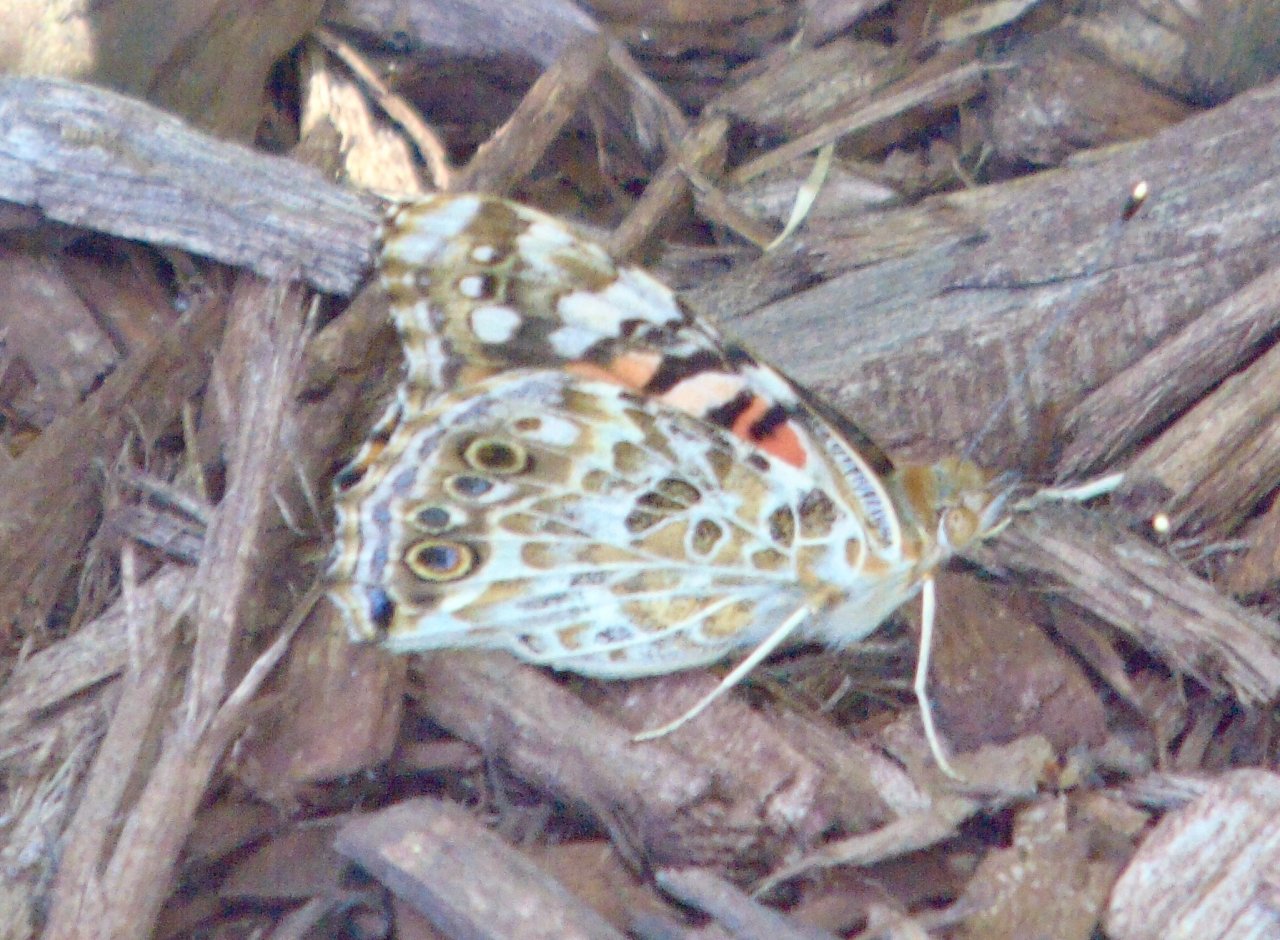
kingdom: Animalia
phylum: Arthropoda
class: Insecta
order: Lepidoptera
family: Nymphalidae
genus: Vanessa
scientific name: Vanessa cardui
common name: Painted Lady
